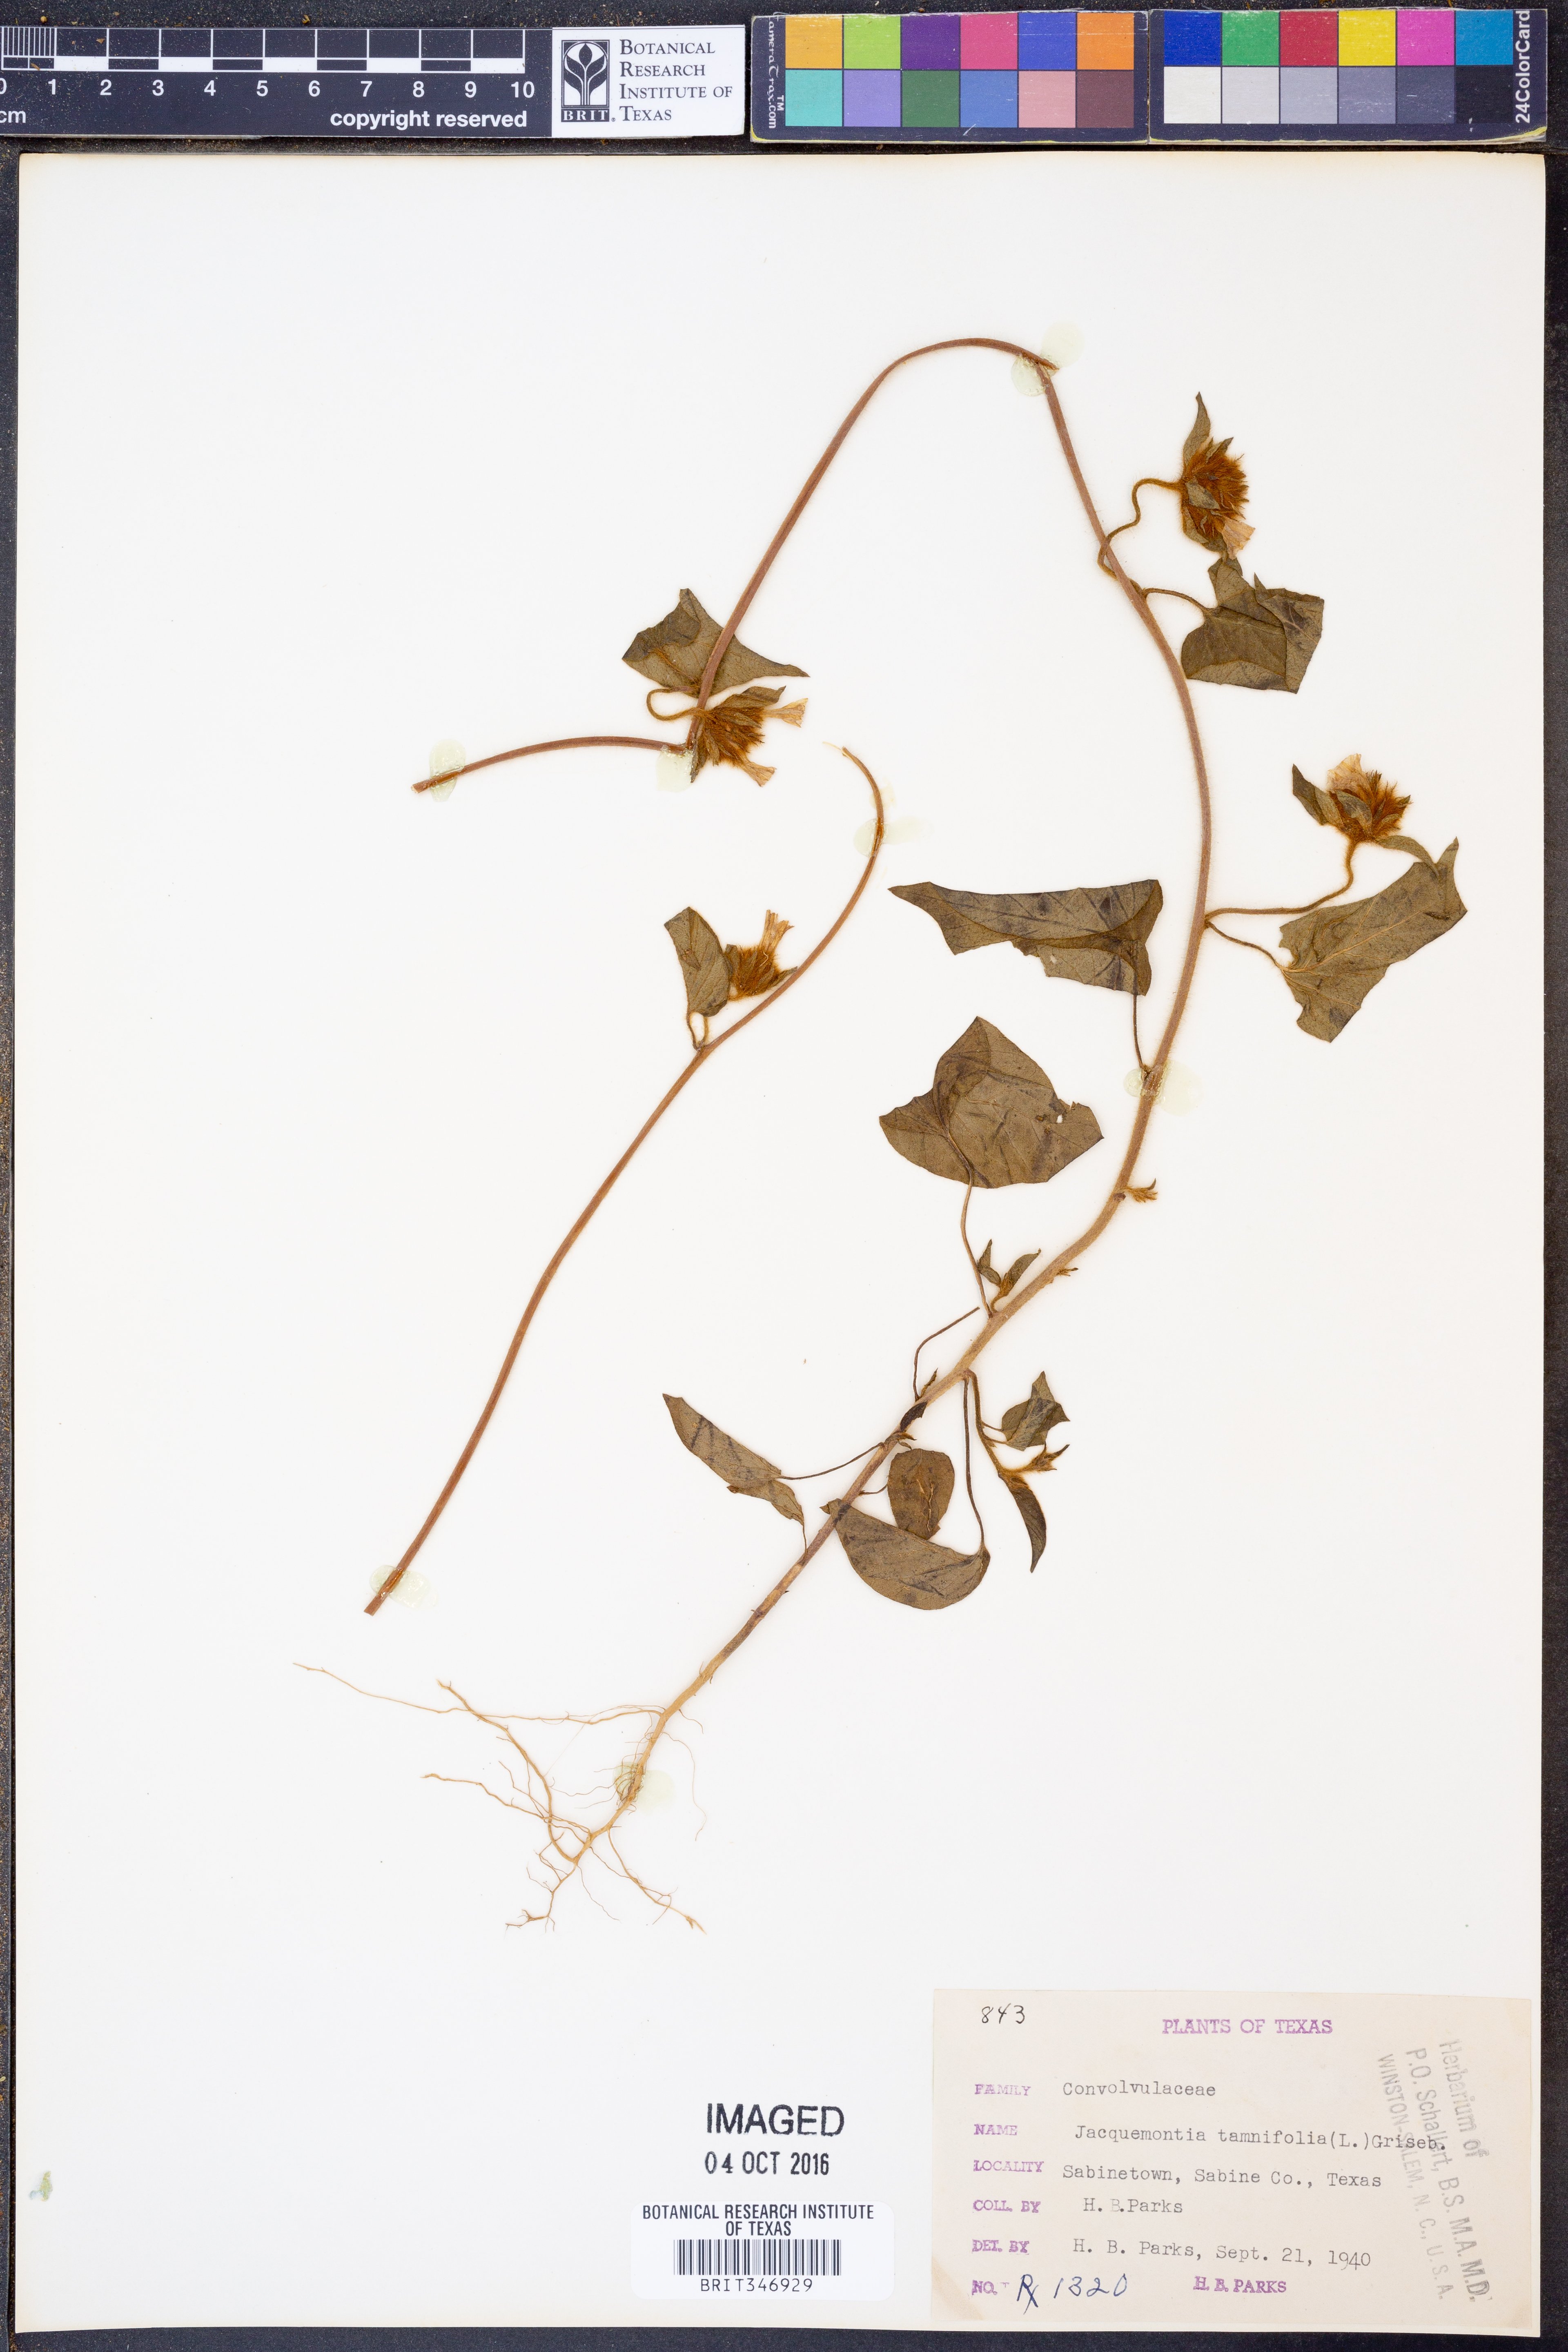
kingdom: Plantae
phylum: Tracheophyta
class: Magnoliopsida
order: Solanales
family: Convolvulaceae
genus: Jacquemontia
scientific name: Jacquemontia tamnifolia
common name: Hairy clustervine
